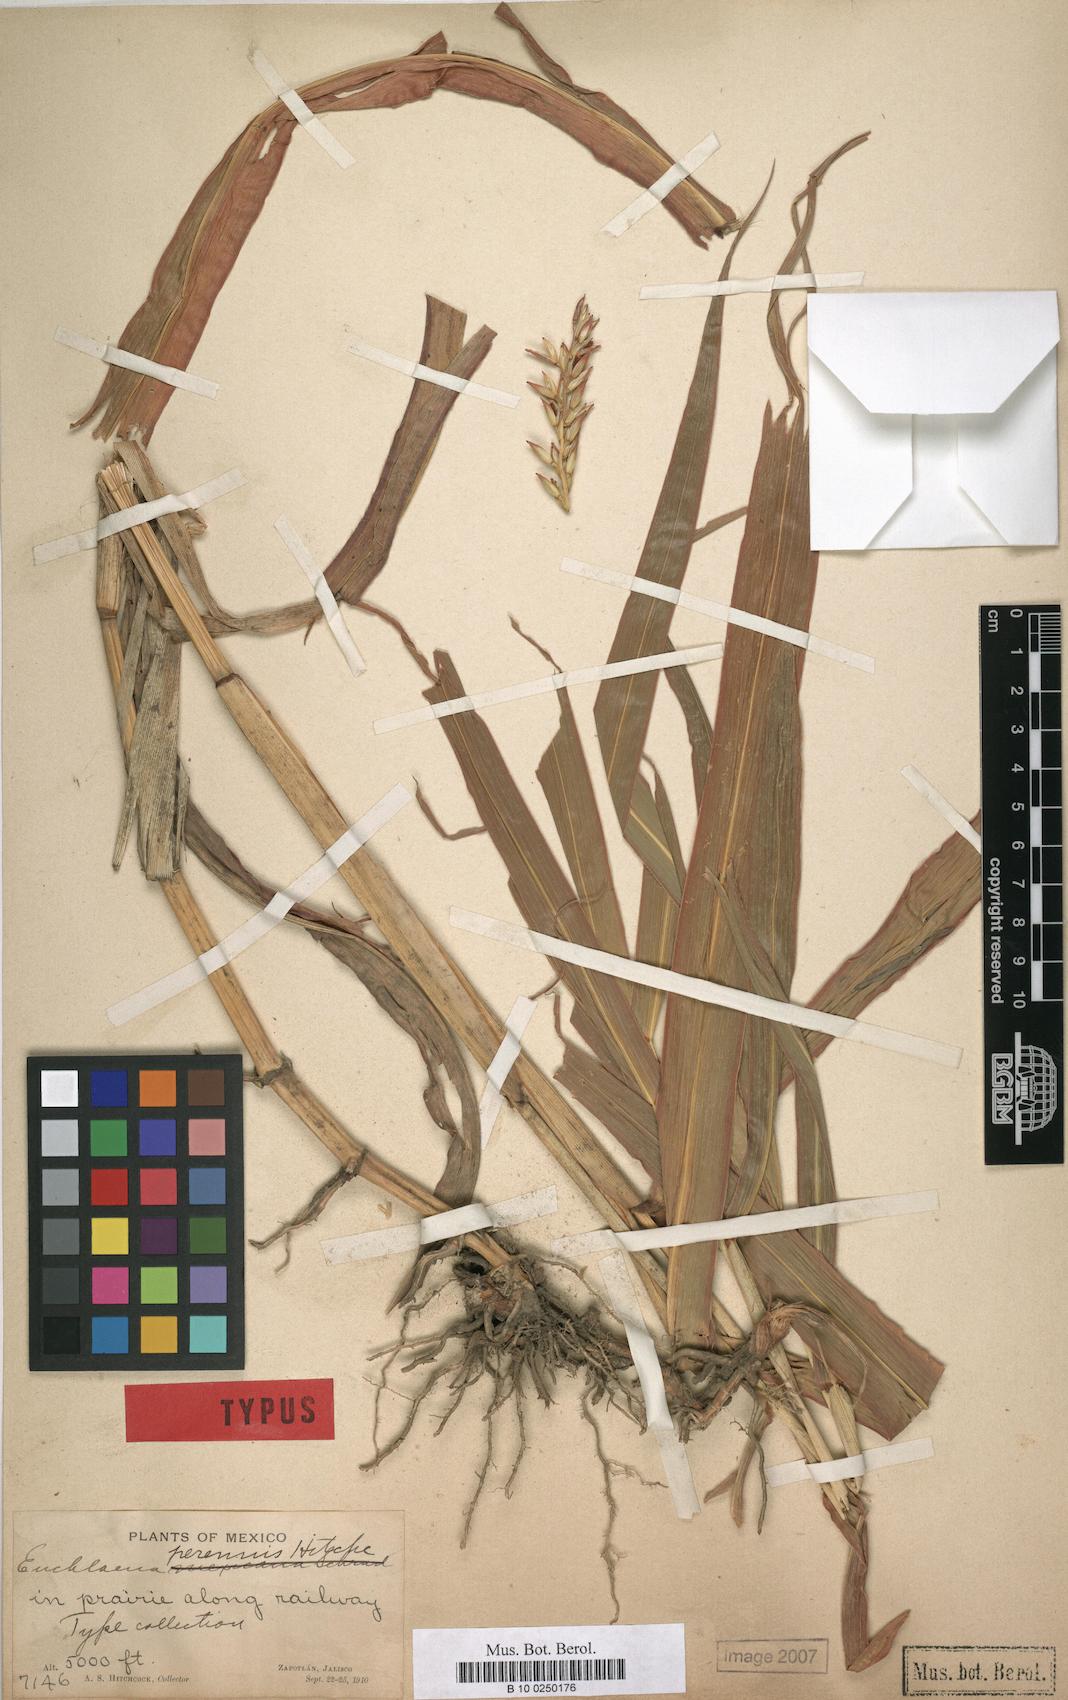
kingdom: Plantae
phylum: Tracheophyta
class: Liliopsida
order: Poales
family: Poaceae
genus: Zea
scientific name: Zea perennis
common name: Perennial teosinte
